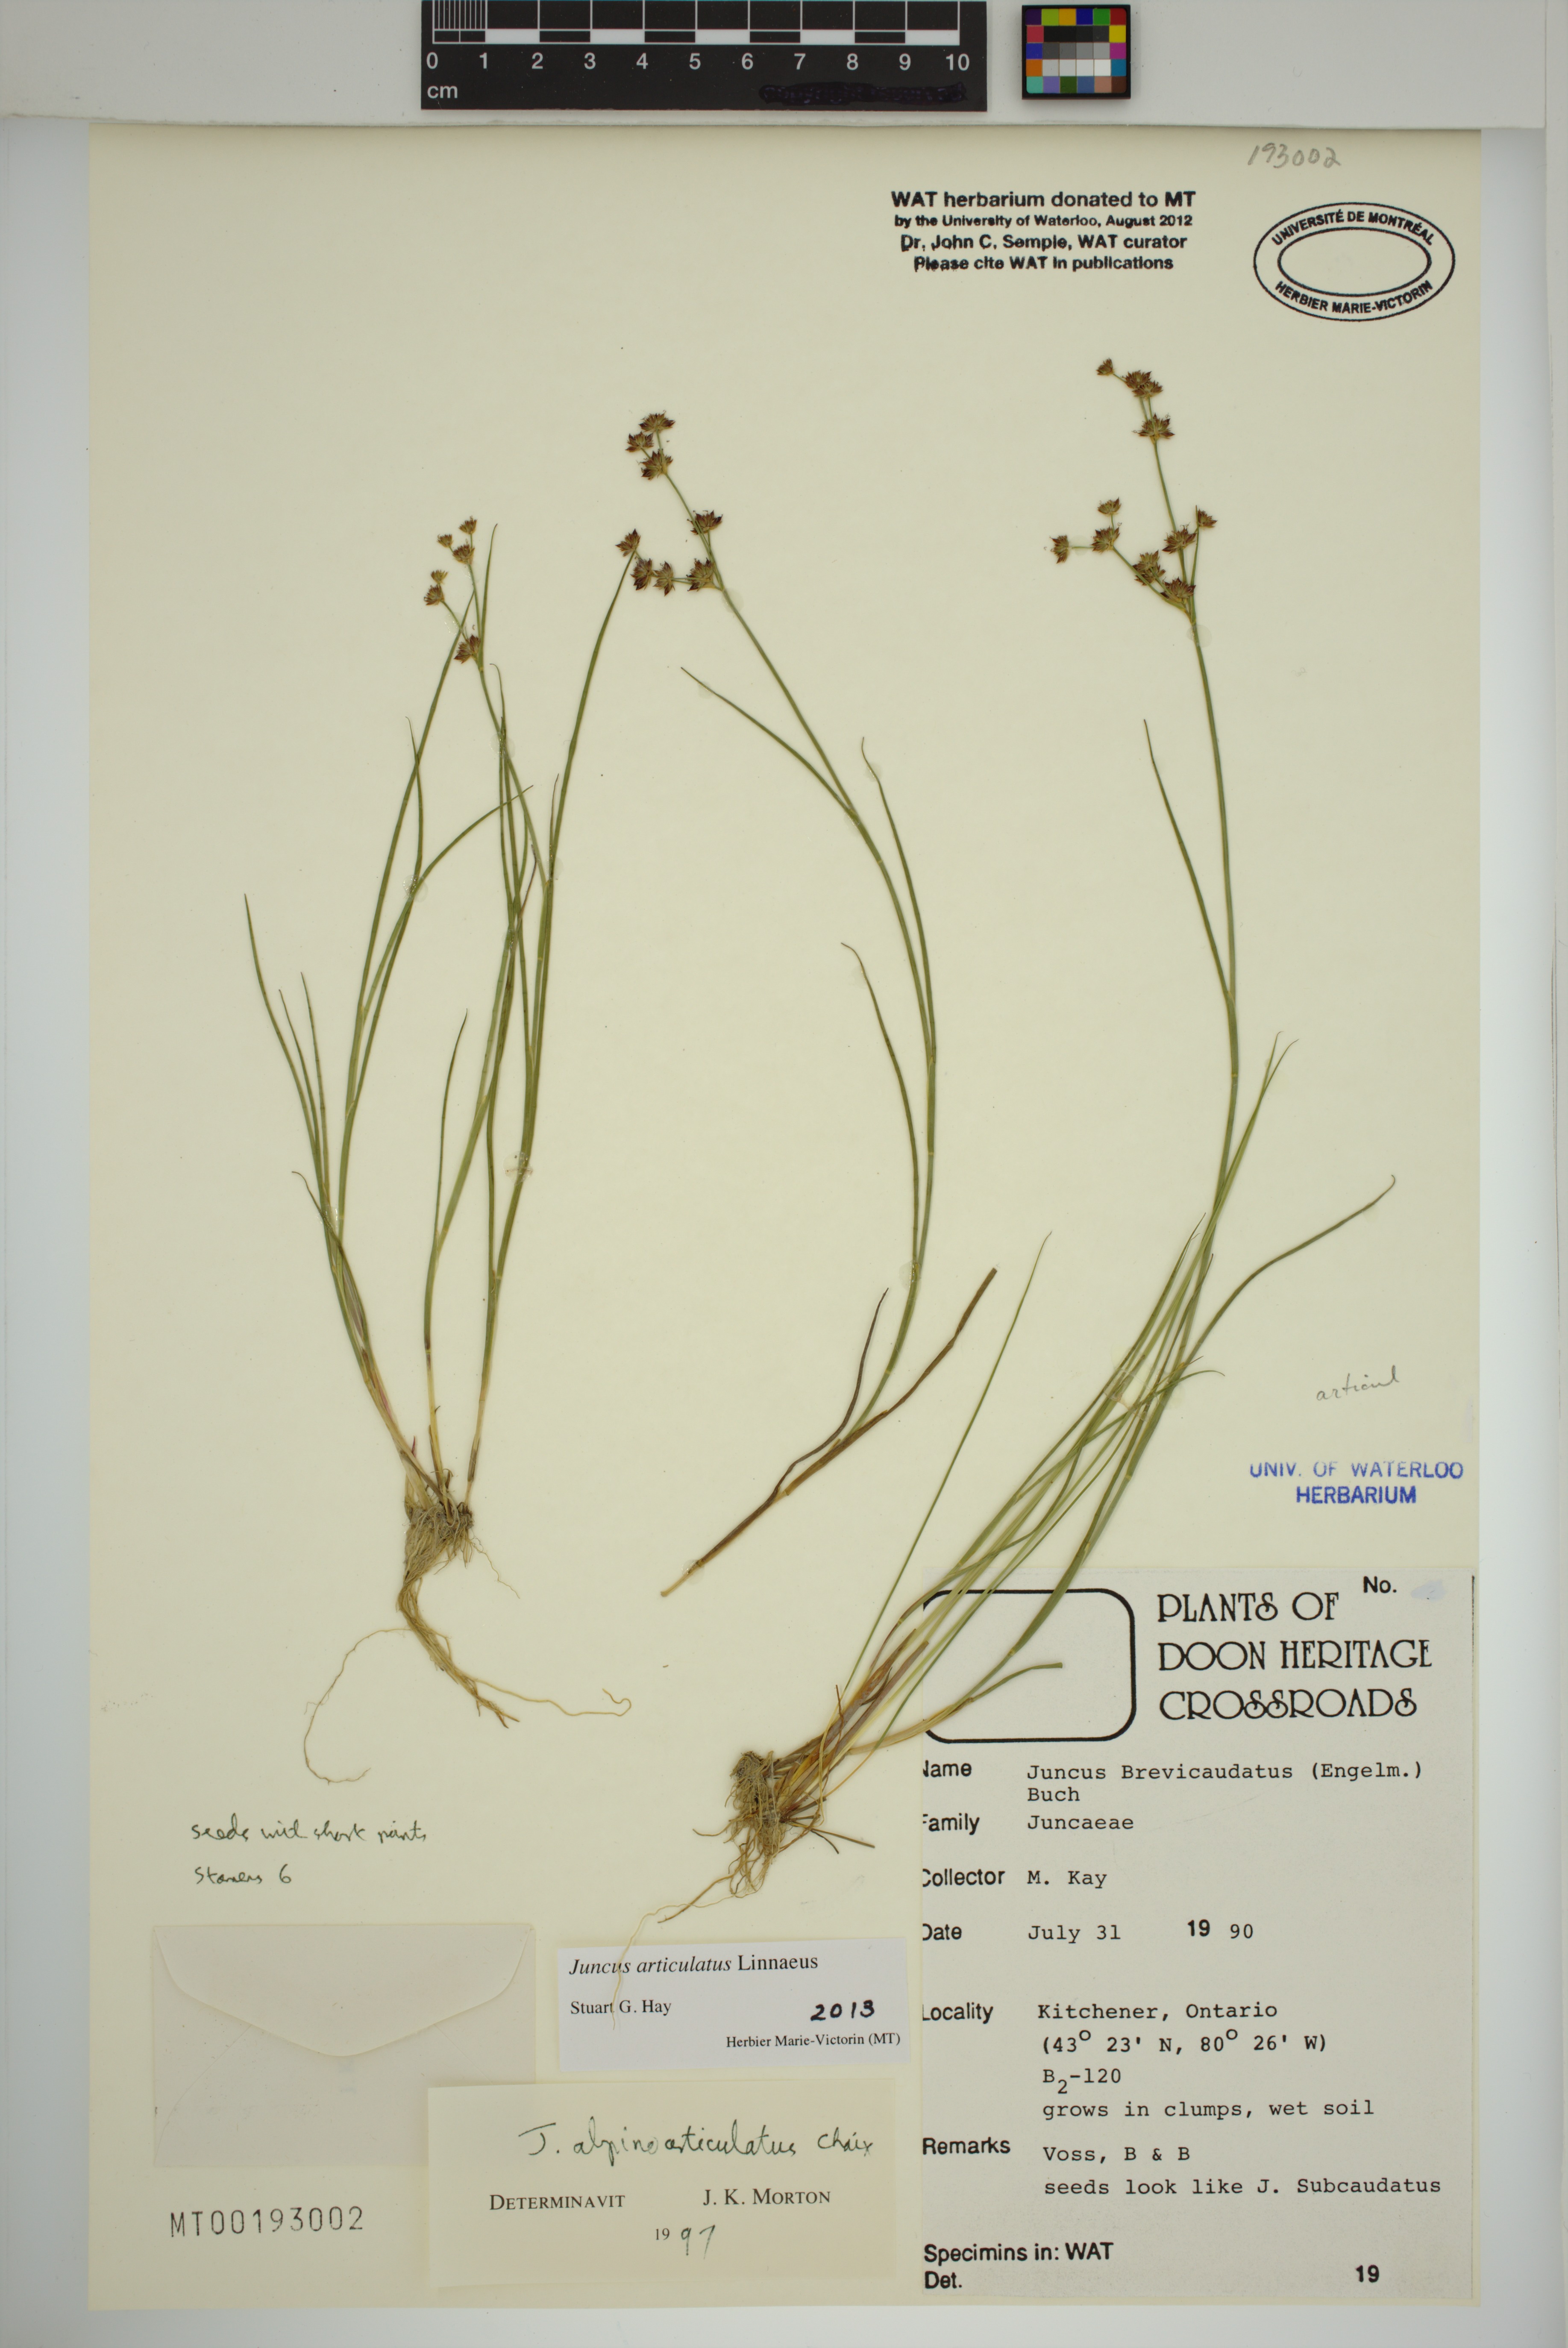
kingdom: Plantae
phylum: Tracheophyta
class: Liliopsida
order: Poales
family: Juncaceae
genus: Juncus
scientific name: Juncus articulatus
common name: Jointed rush
